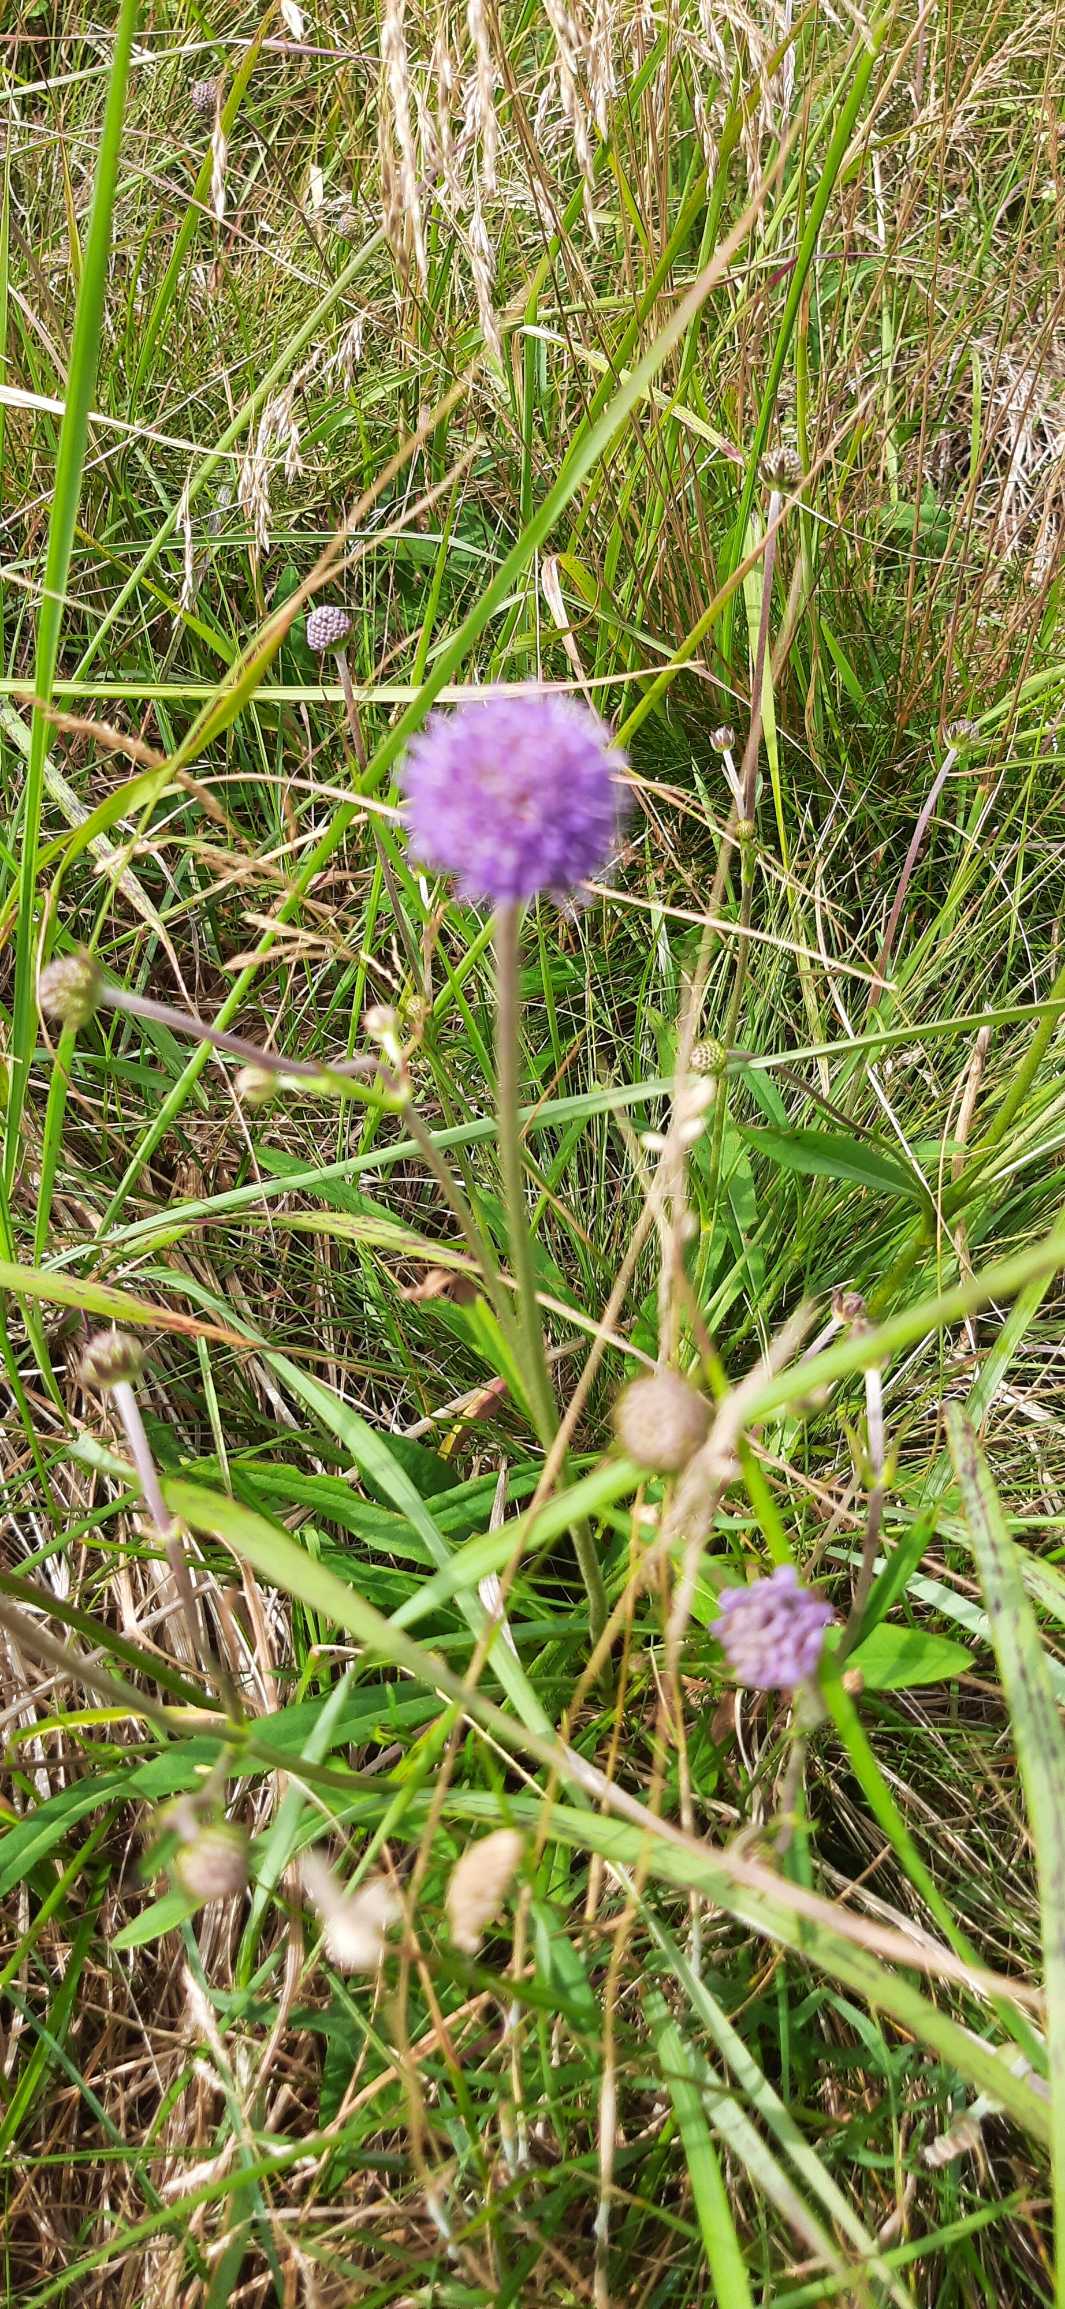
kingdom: Plantae
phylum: Tracheophyta
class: Magnoliopsida
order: Dipsacales
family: Caprifoliaceae
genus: Succisa
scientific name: Succisa pratensis
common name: Djævelsbid
